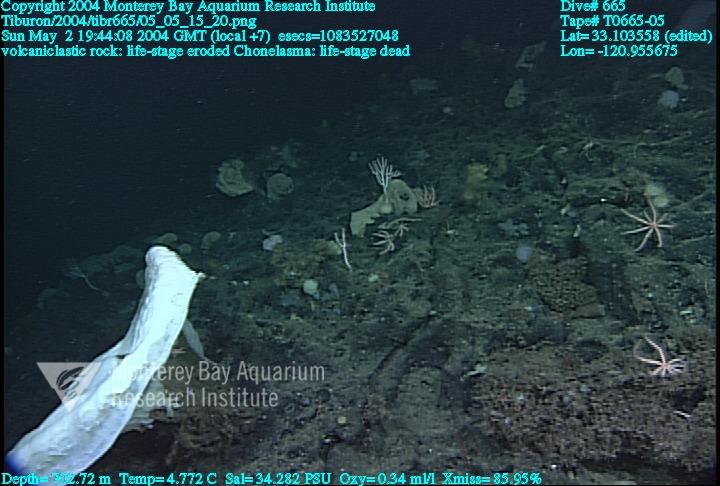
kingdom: Animalia
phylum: Porifera
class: Hexactinellida
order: Sceptrulophora
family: Euretidae
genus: Chonelasma
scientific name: Chonelasma
